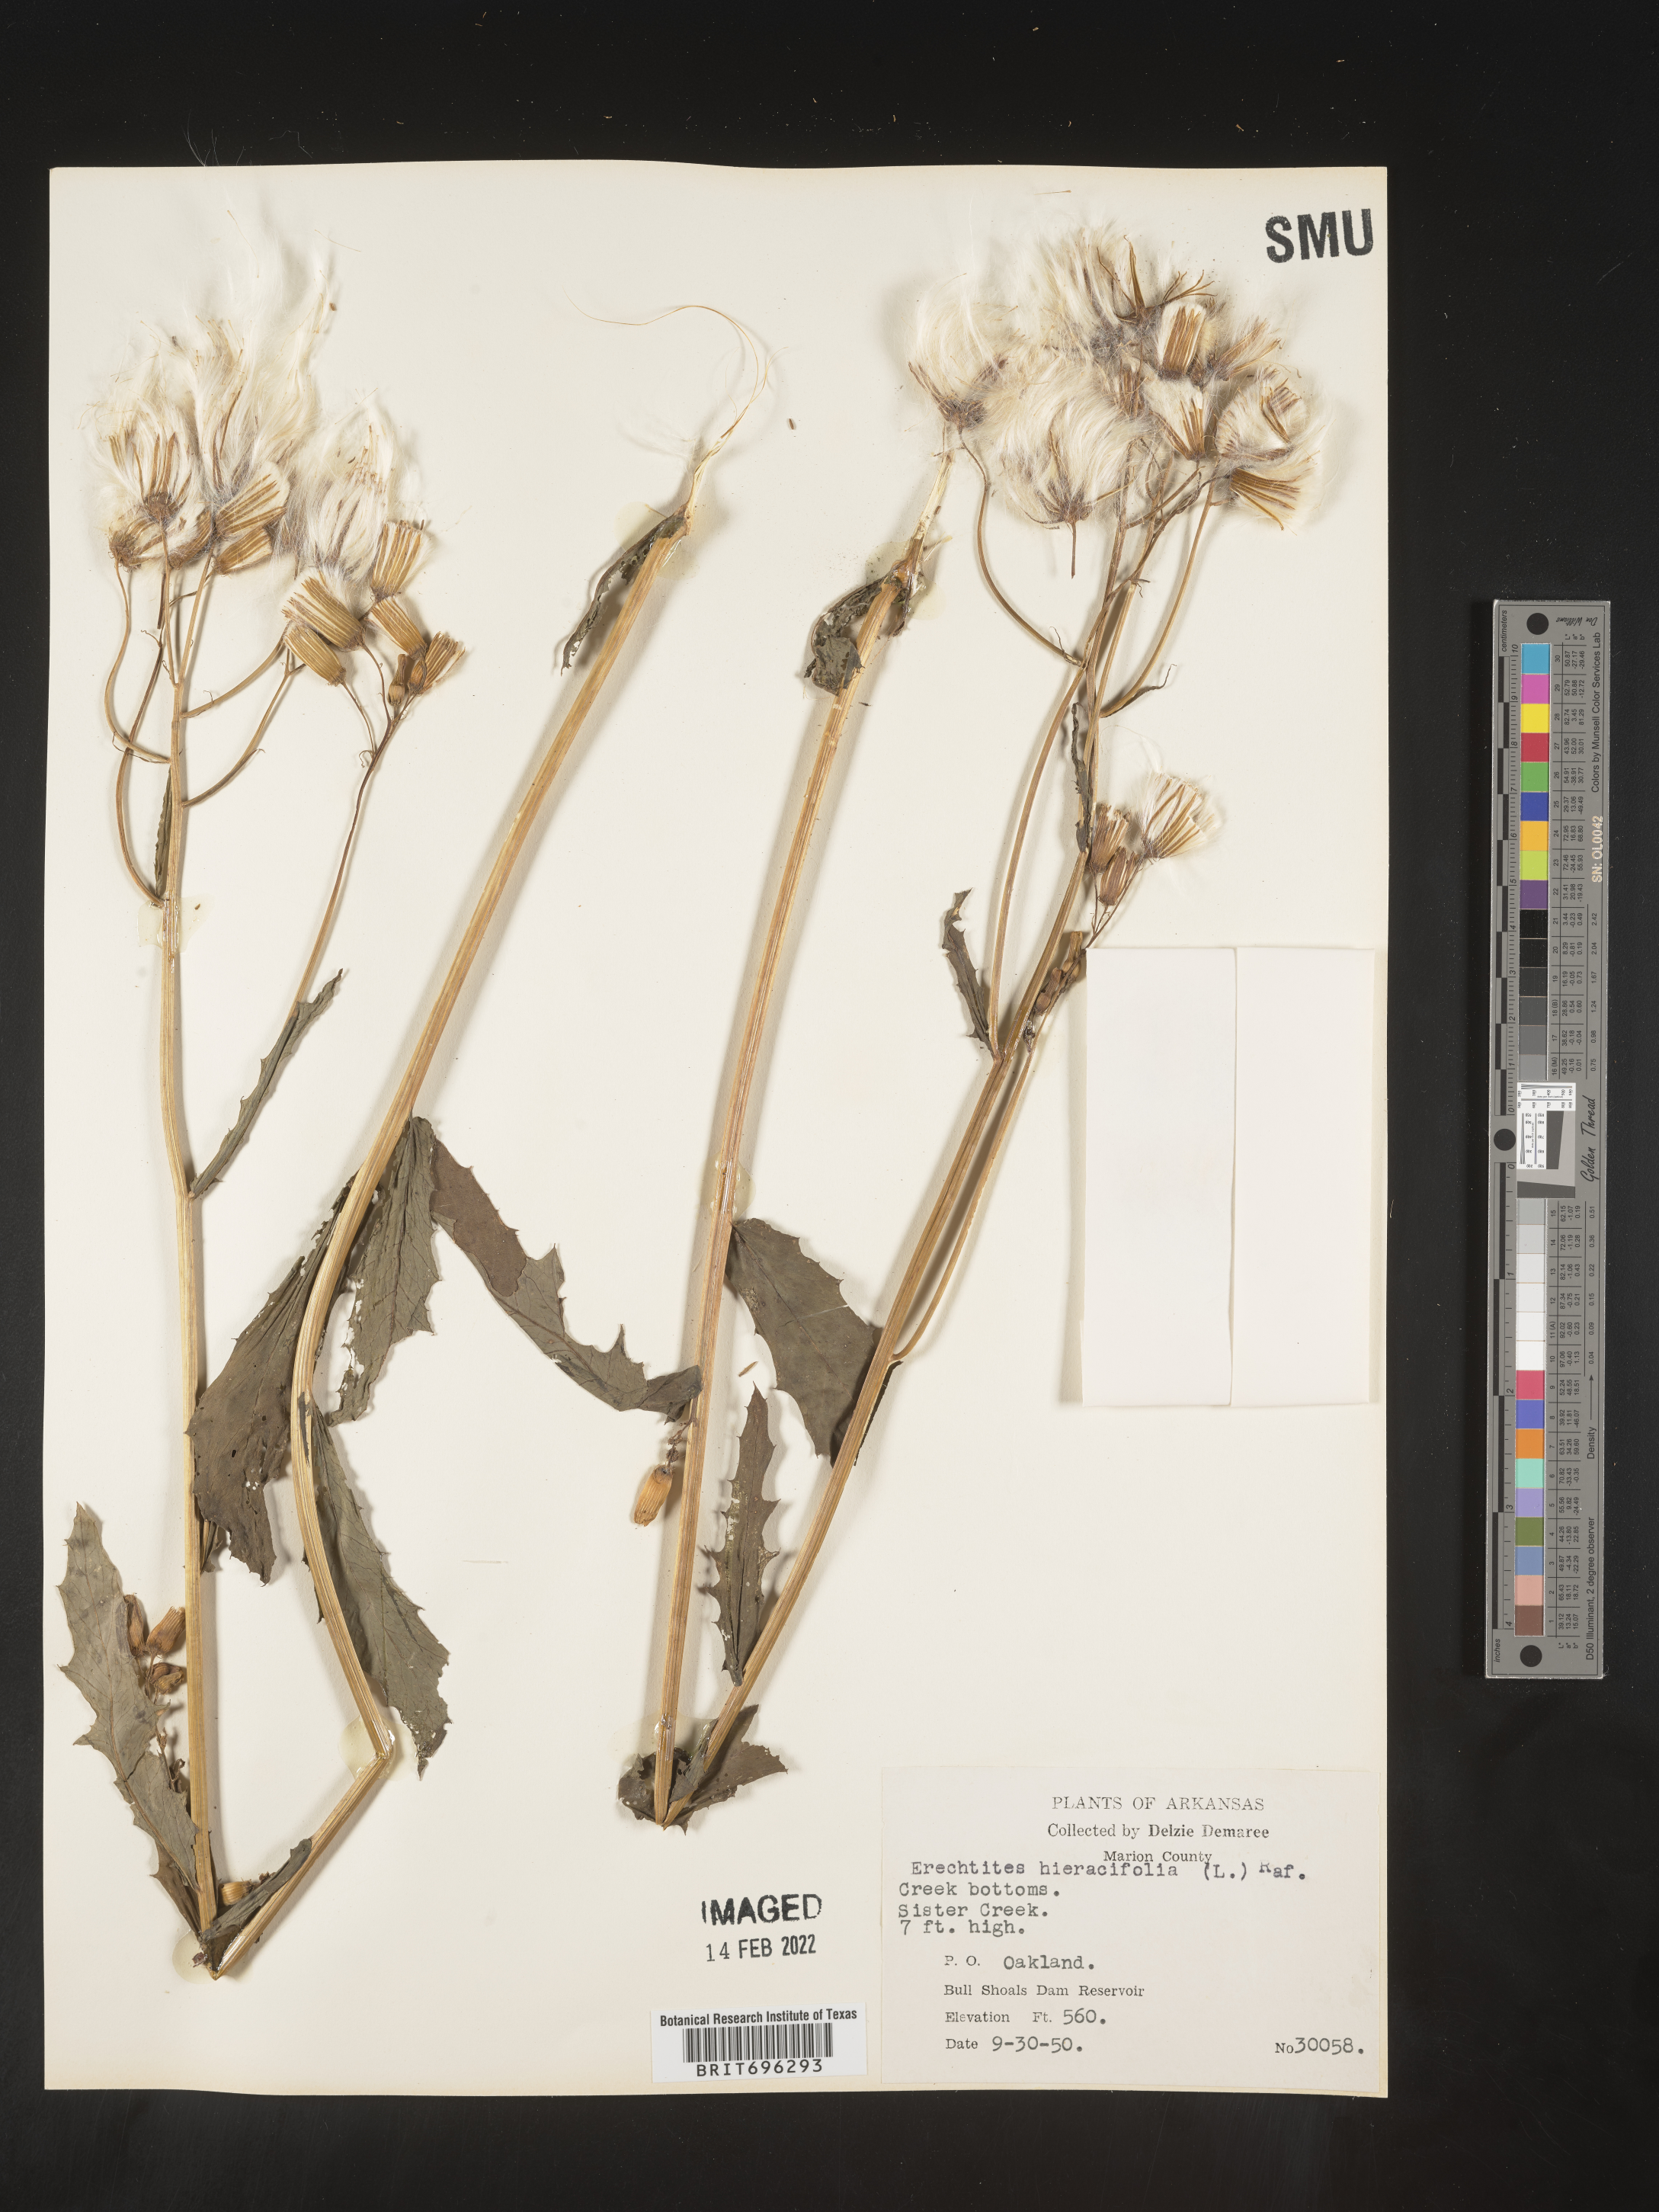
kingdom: Plantae
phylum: Tracheophyta
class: Magnoliopsida
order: Asterales
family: Asteraceae
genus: Erechtites
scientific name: Erechtites hieraciifolius
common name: American burnweed
